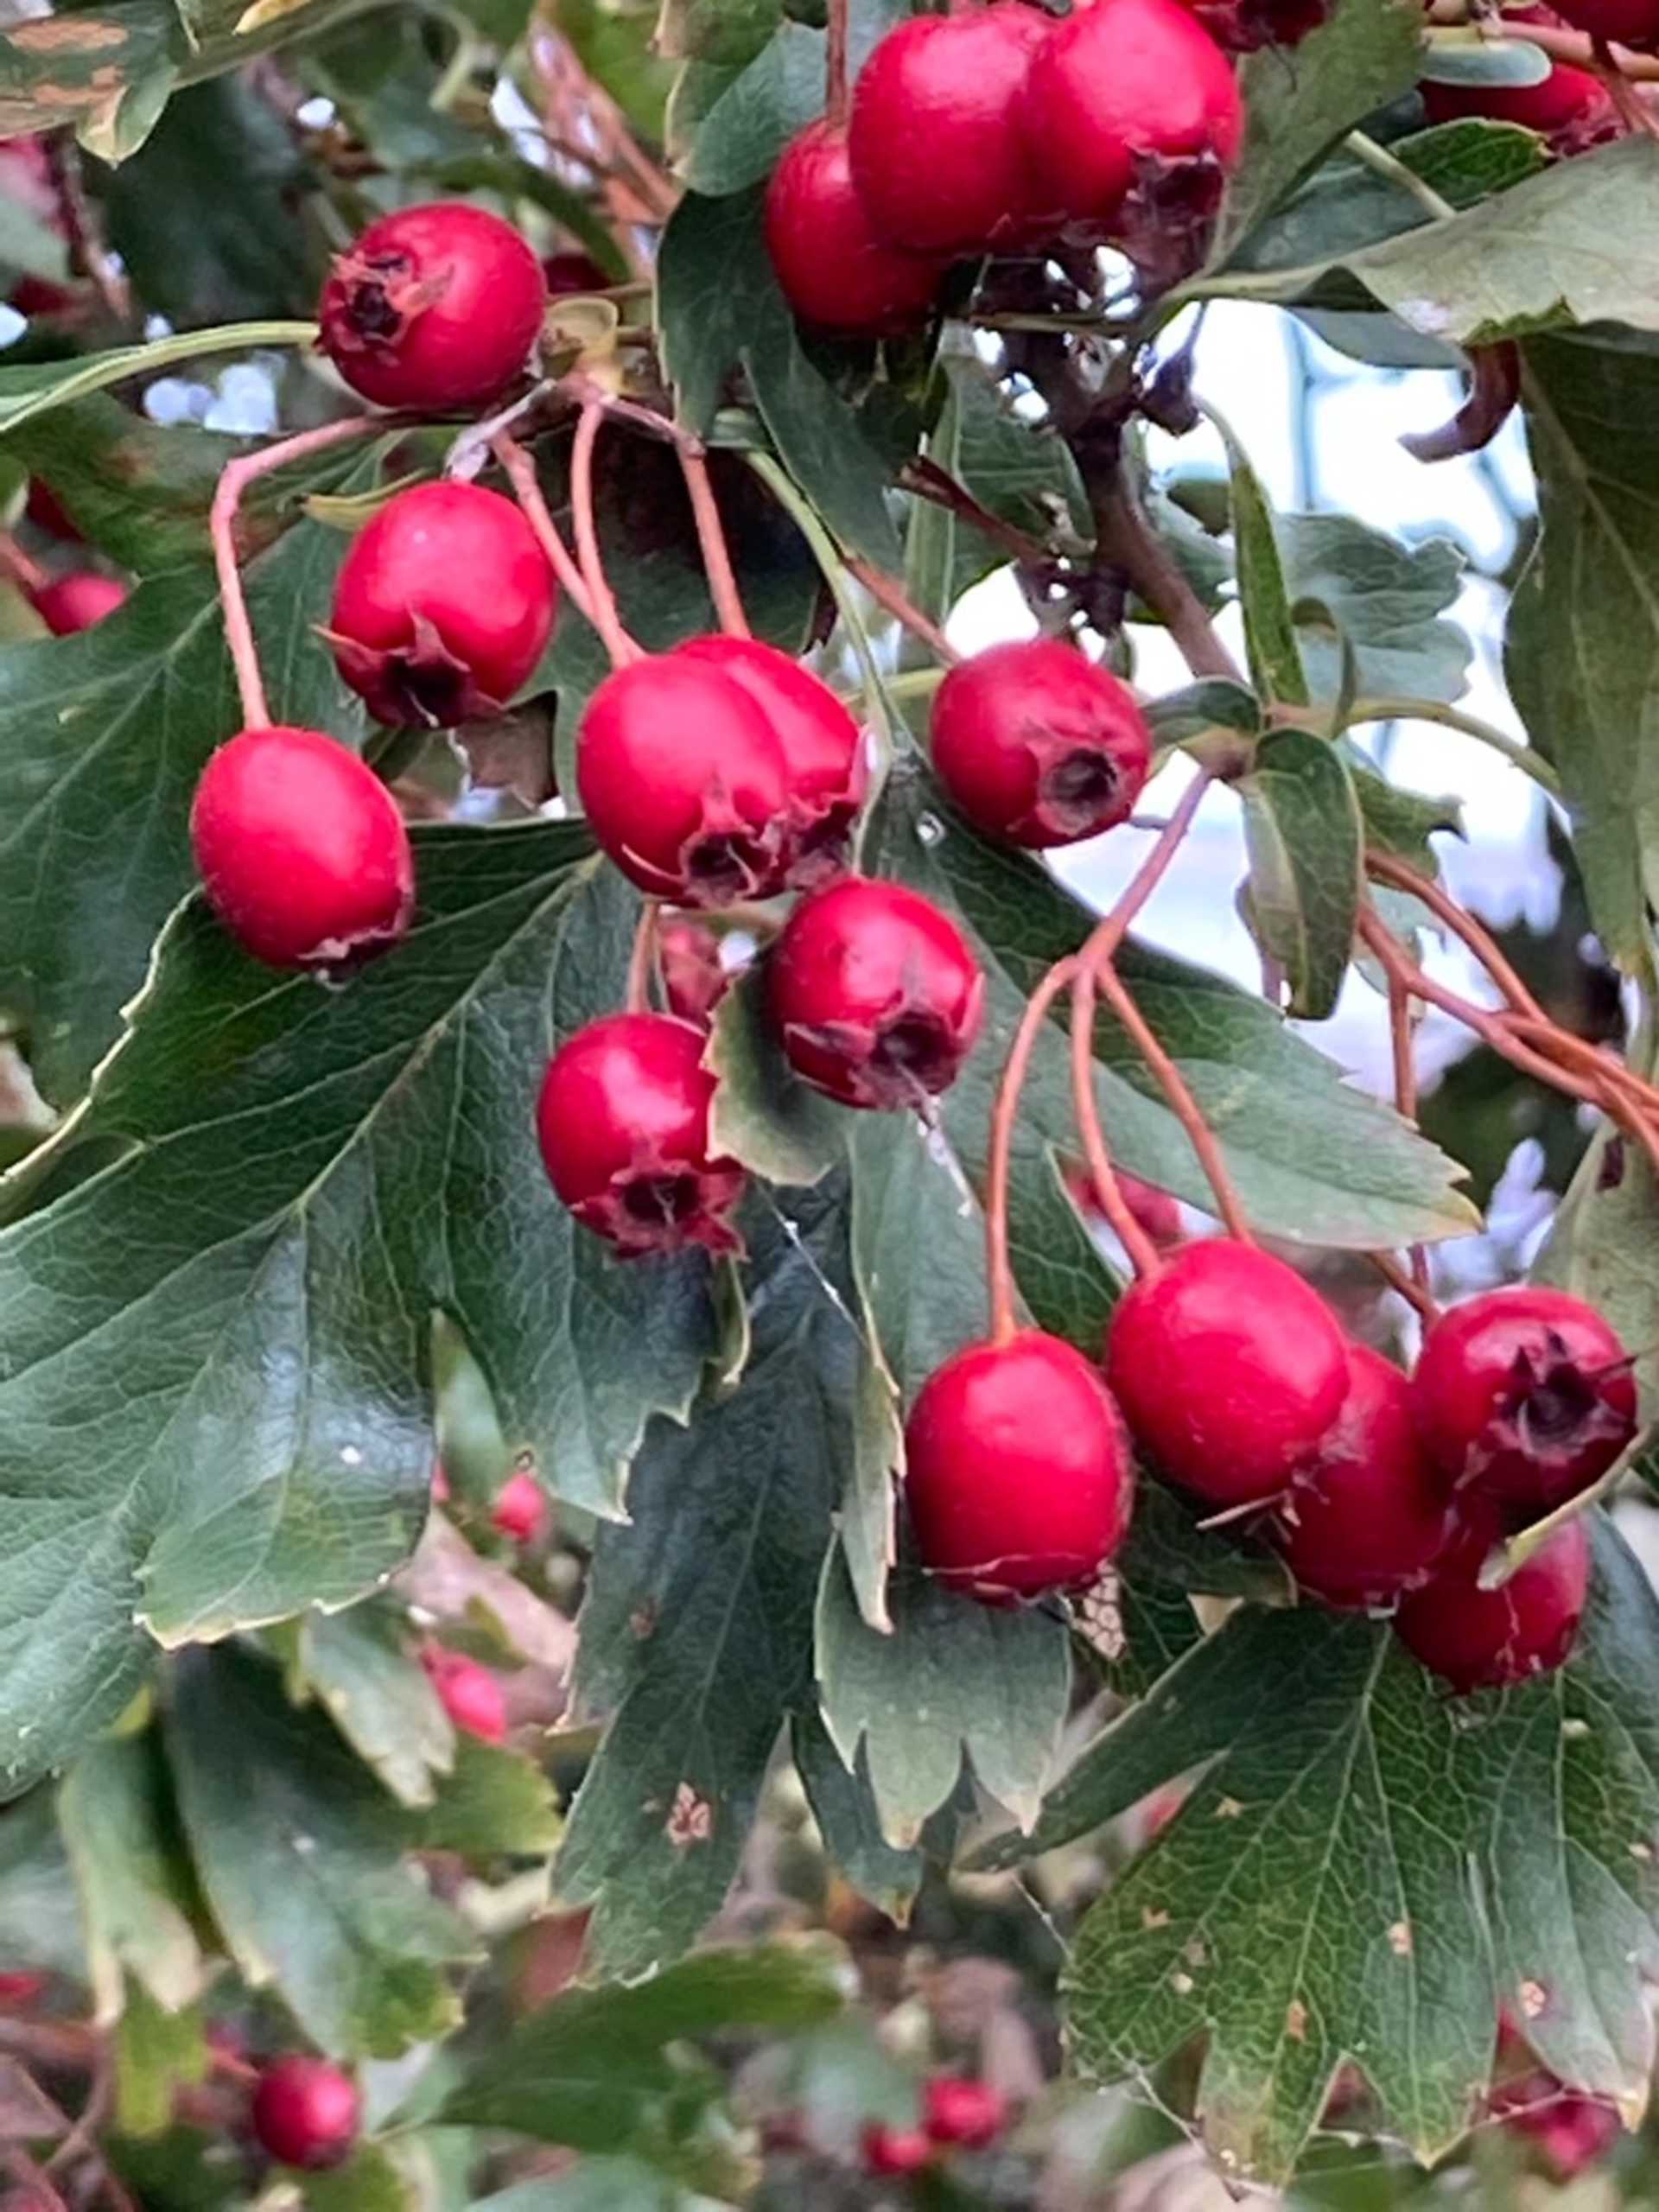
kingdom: Plantae
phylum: Tracheophyta
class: Magnoliopsida
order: Rosales
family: Rosaceae
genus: Crataegus
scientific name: Crataegus
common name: Hvidtjørnslægten
